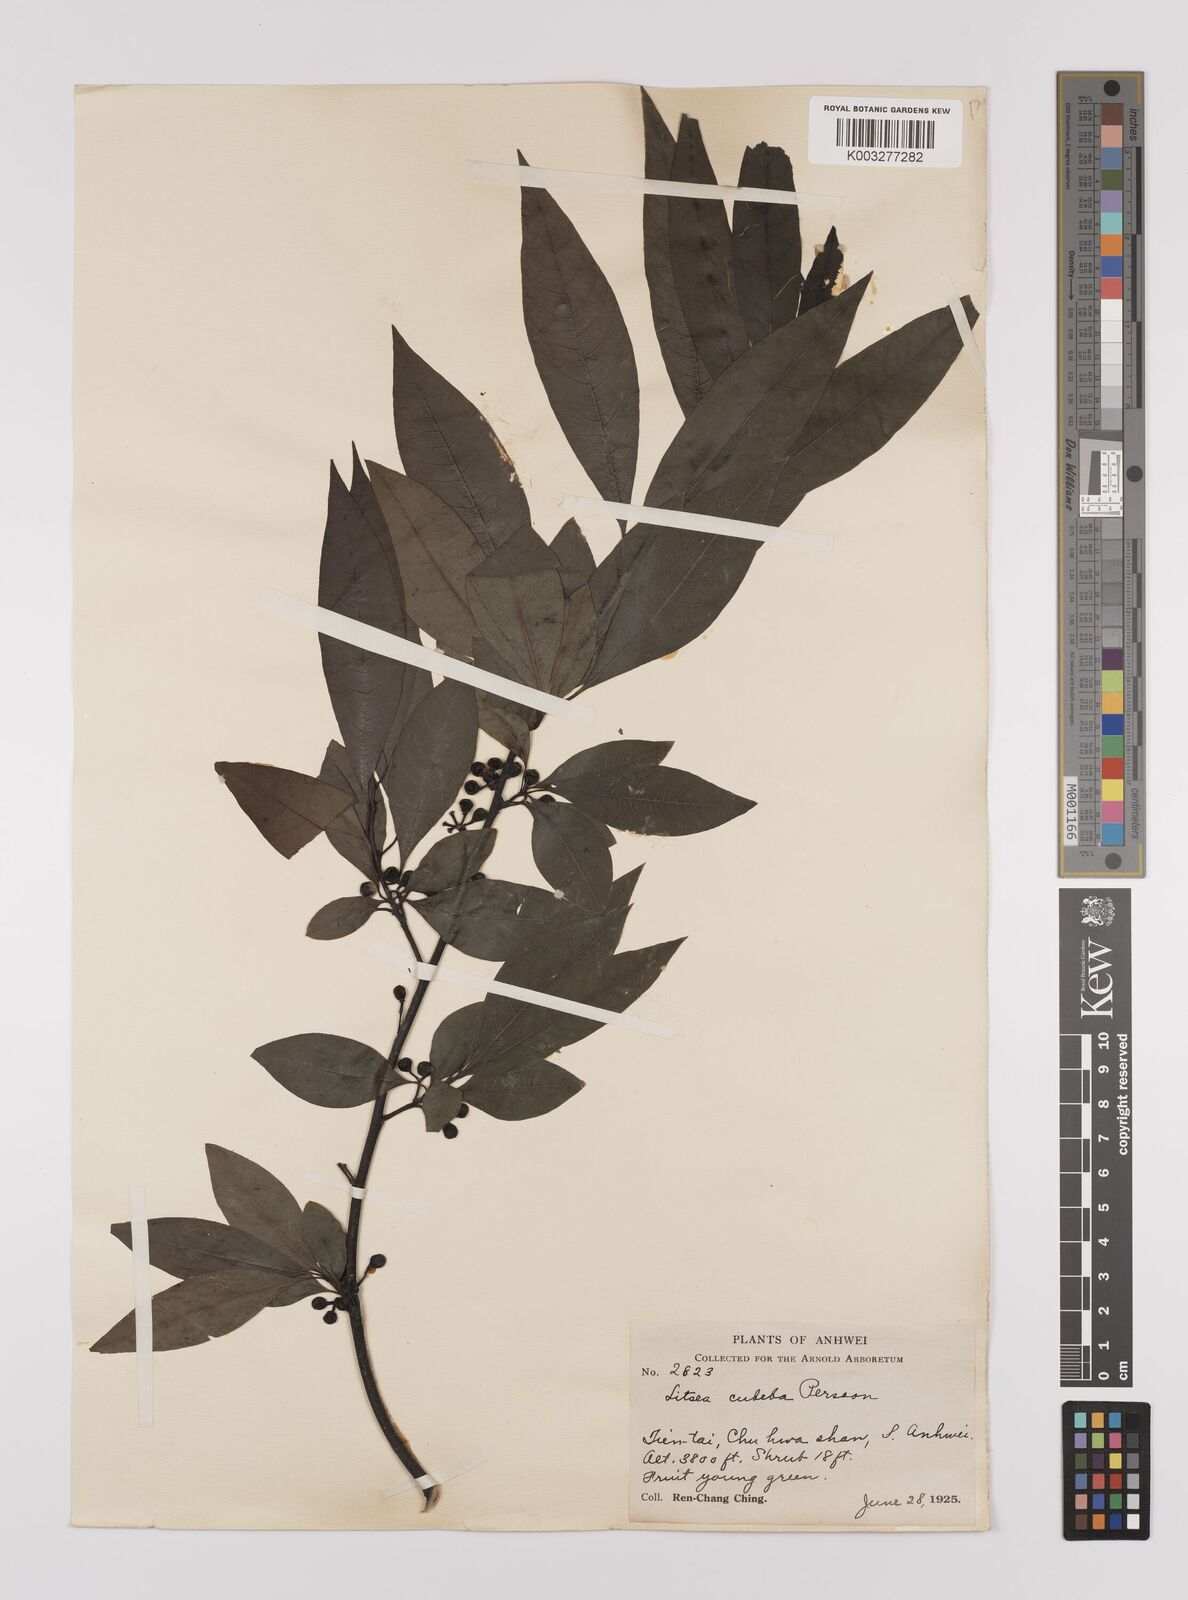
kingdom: Plantae
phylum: Tracheophyta
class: Magnoliopsida
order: Laurales
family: Lauraceae
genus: Litsea
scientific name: Litsea cubeba
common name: Mountain-pepper
